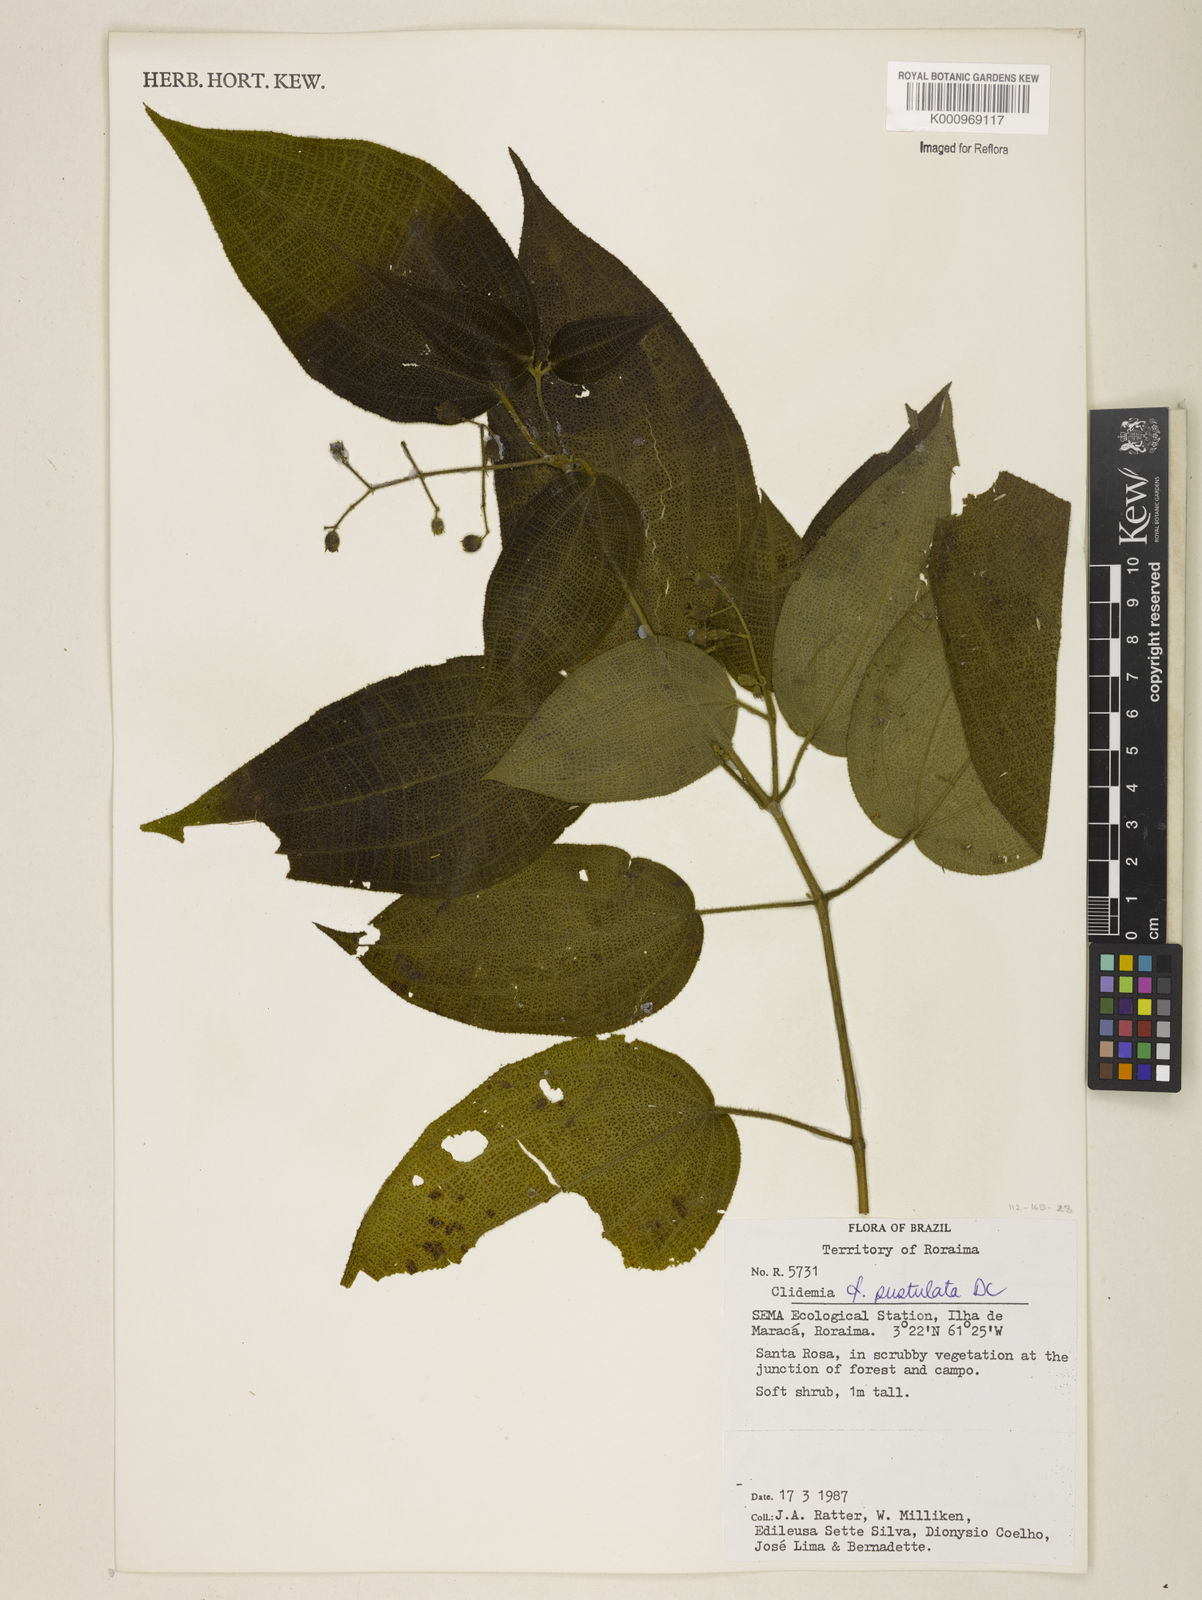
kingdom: Plantae
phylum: Tracheophyta
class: Magnoliopsida
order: Myrtales
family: Melastomataceae
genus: Miconia
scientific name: Miconia fenestrata
